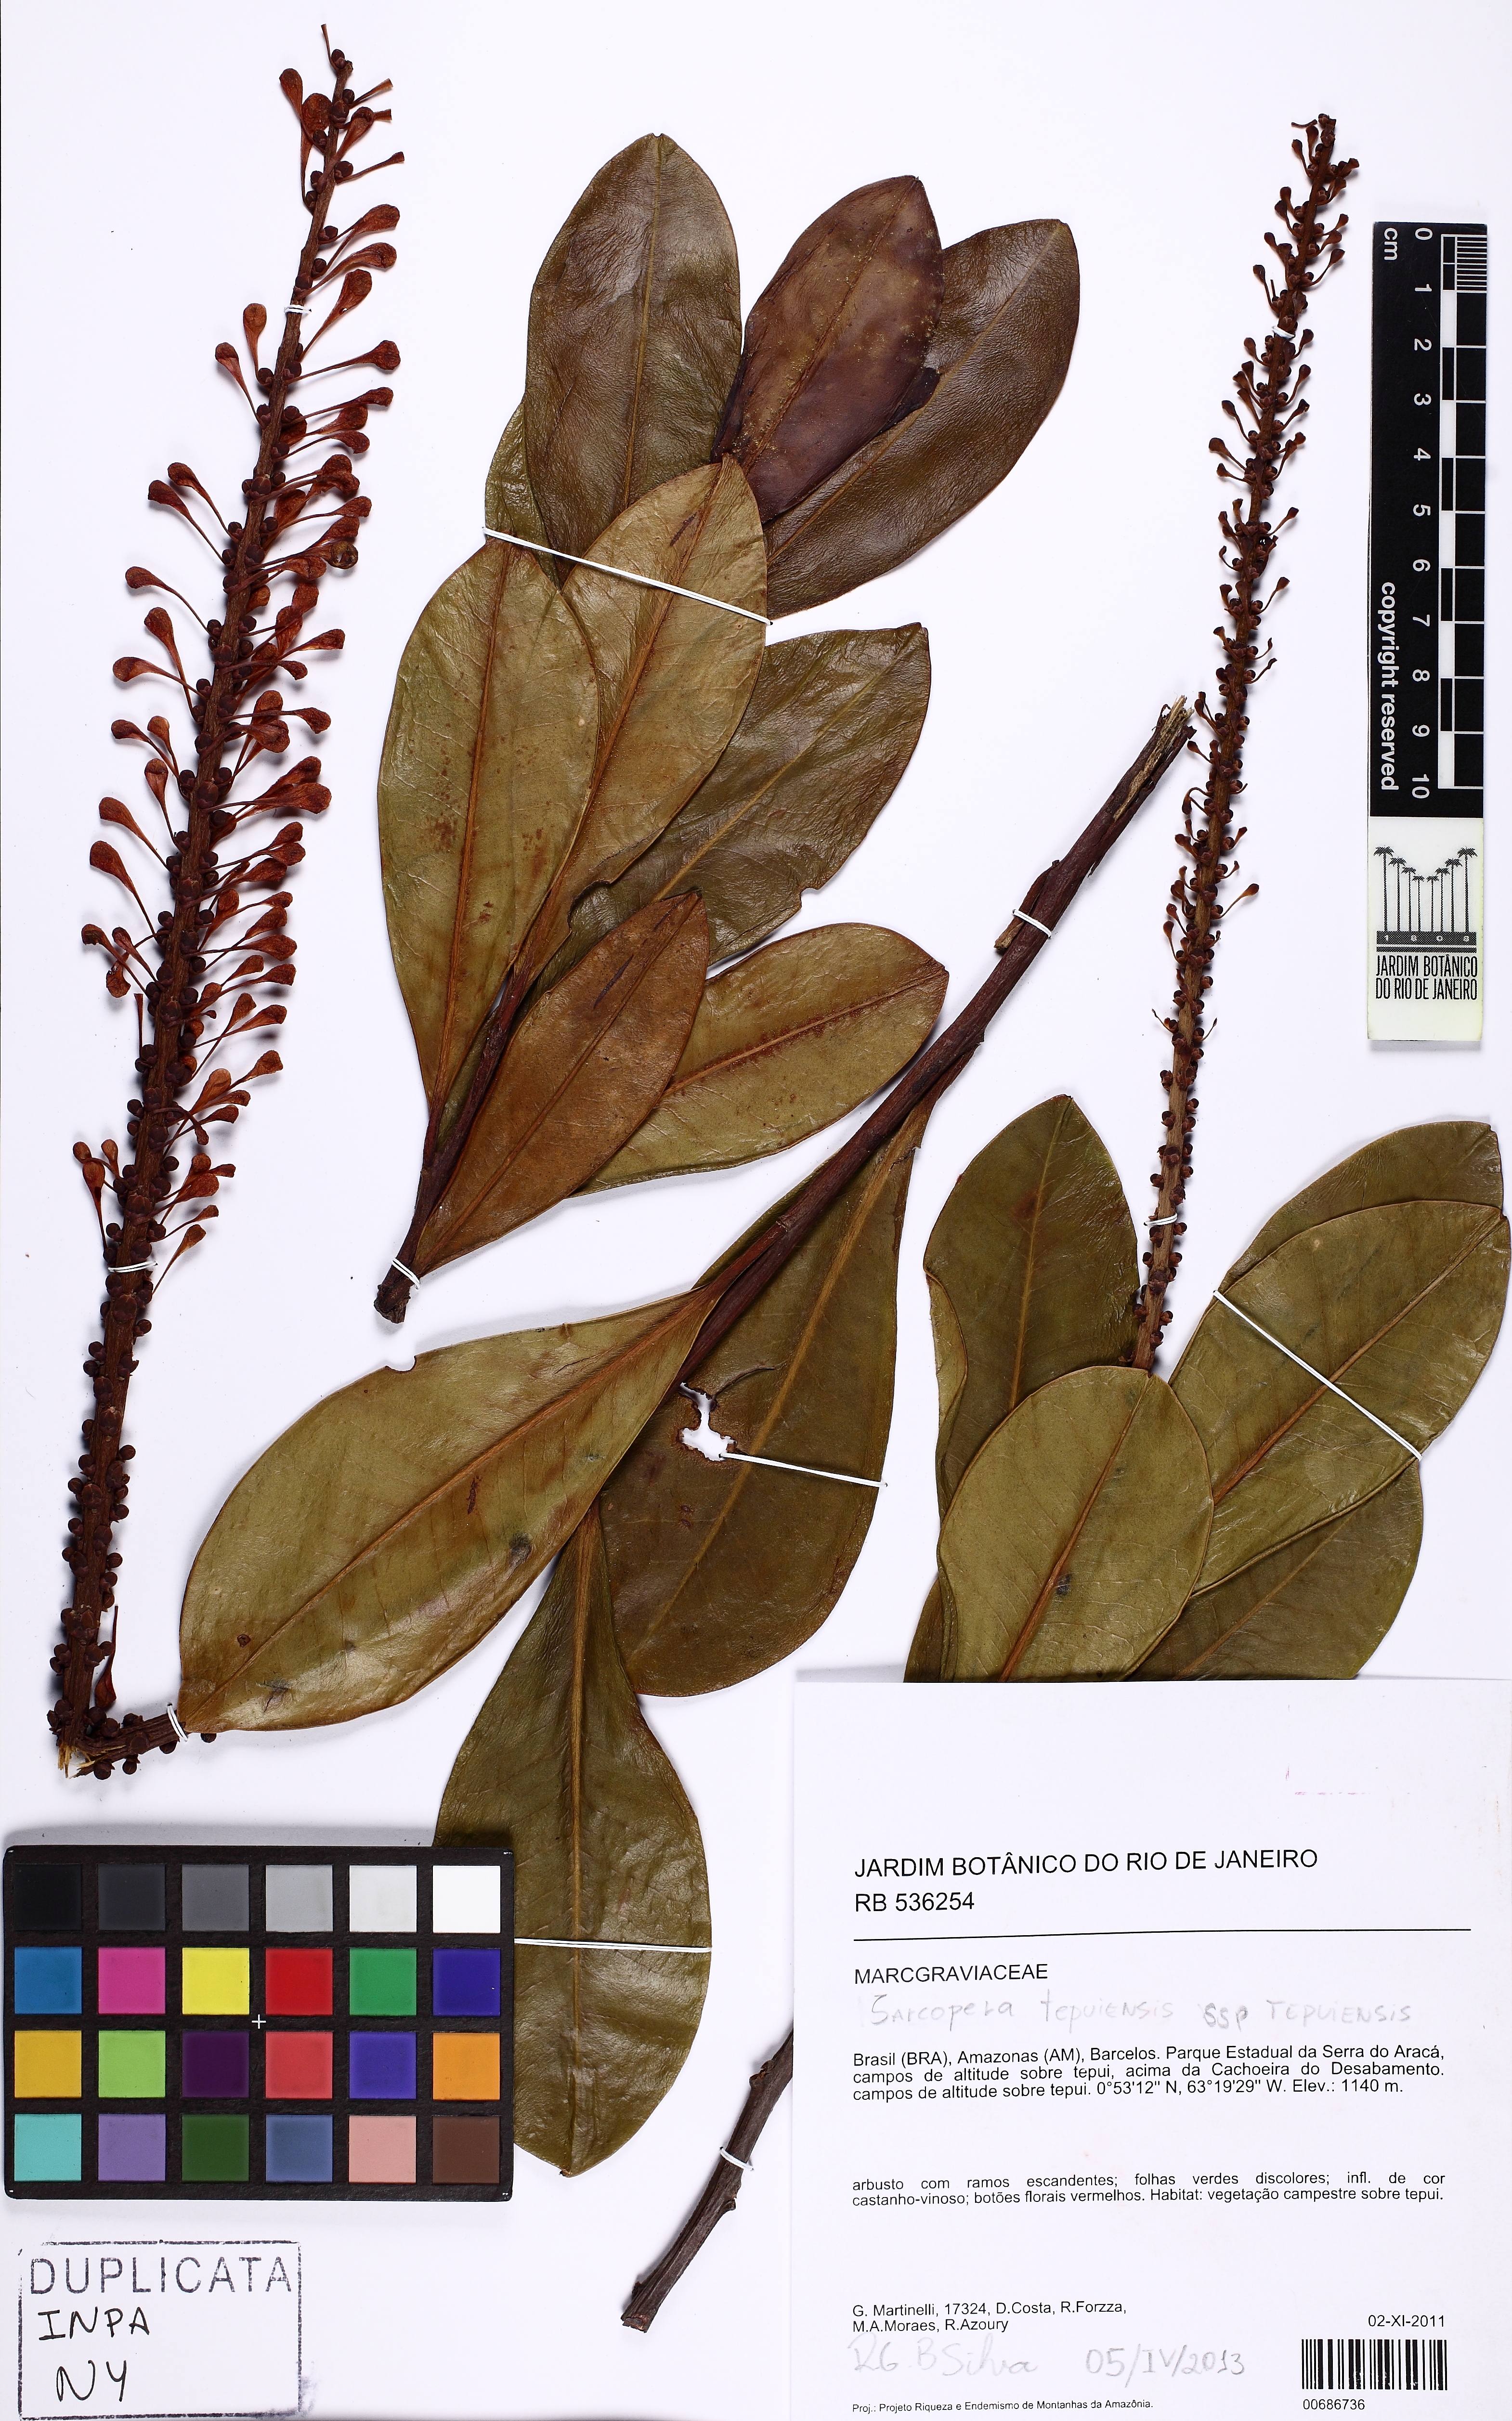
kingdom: Plantae
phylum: Tracheophyta
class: Magnoliopsida
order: Ericales
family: Marcgraviaceae
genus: Sarcopera
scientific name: Sarcopera tepuiensis
